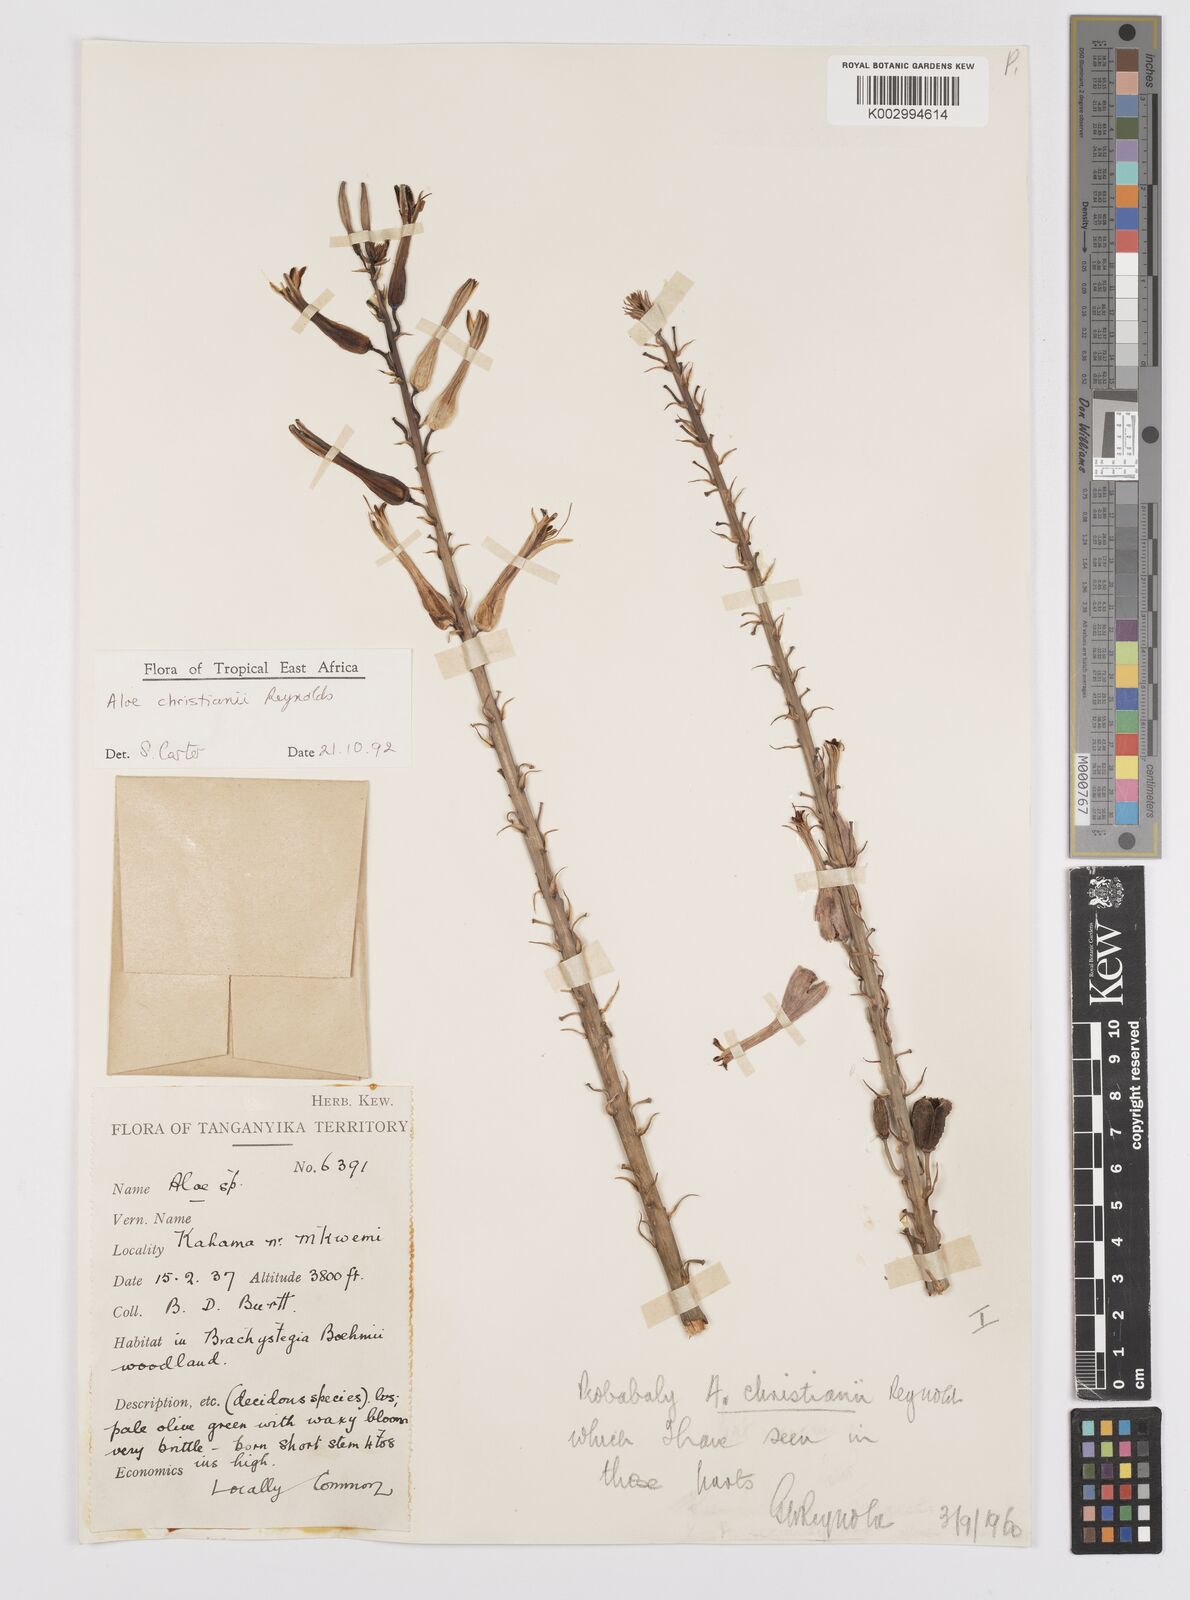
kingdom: Plantae
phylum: Tracheophyta
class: Liliopsida
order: Asparagales
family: Asphodelaceae
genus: Aloe
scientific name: Aloe christianii
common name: Basil christian's aloe
